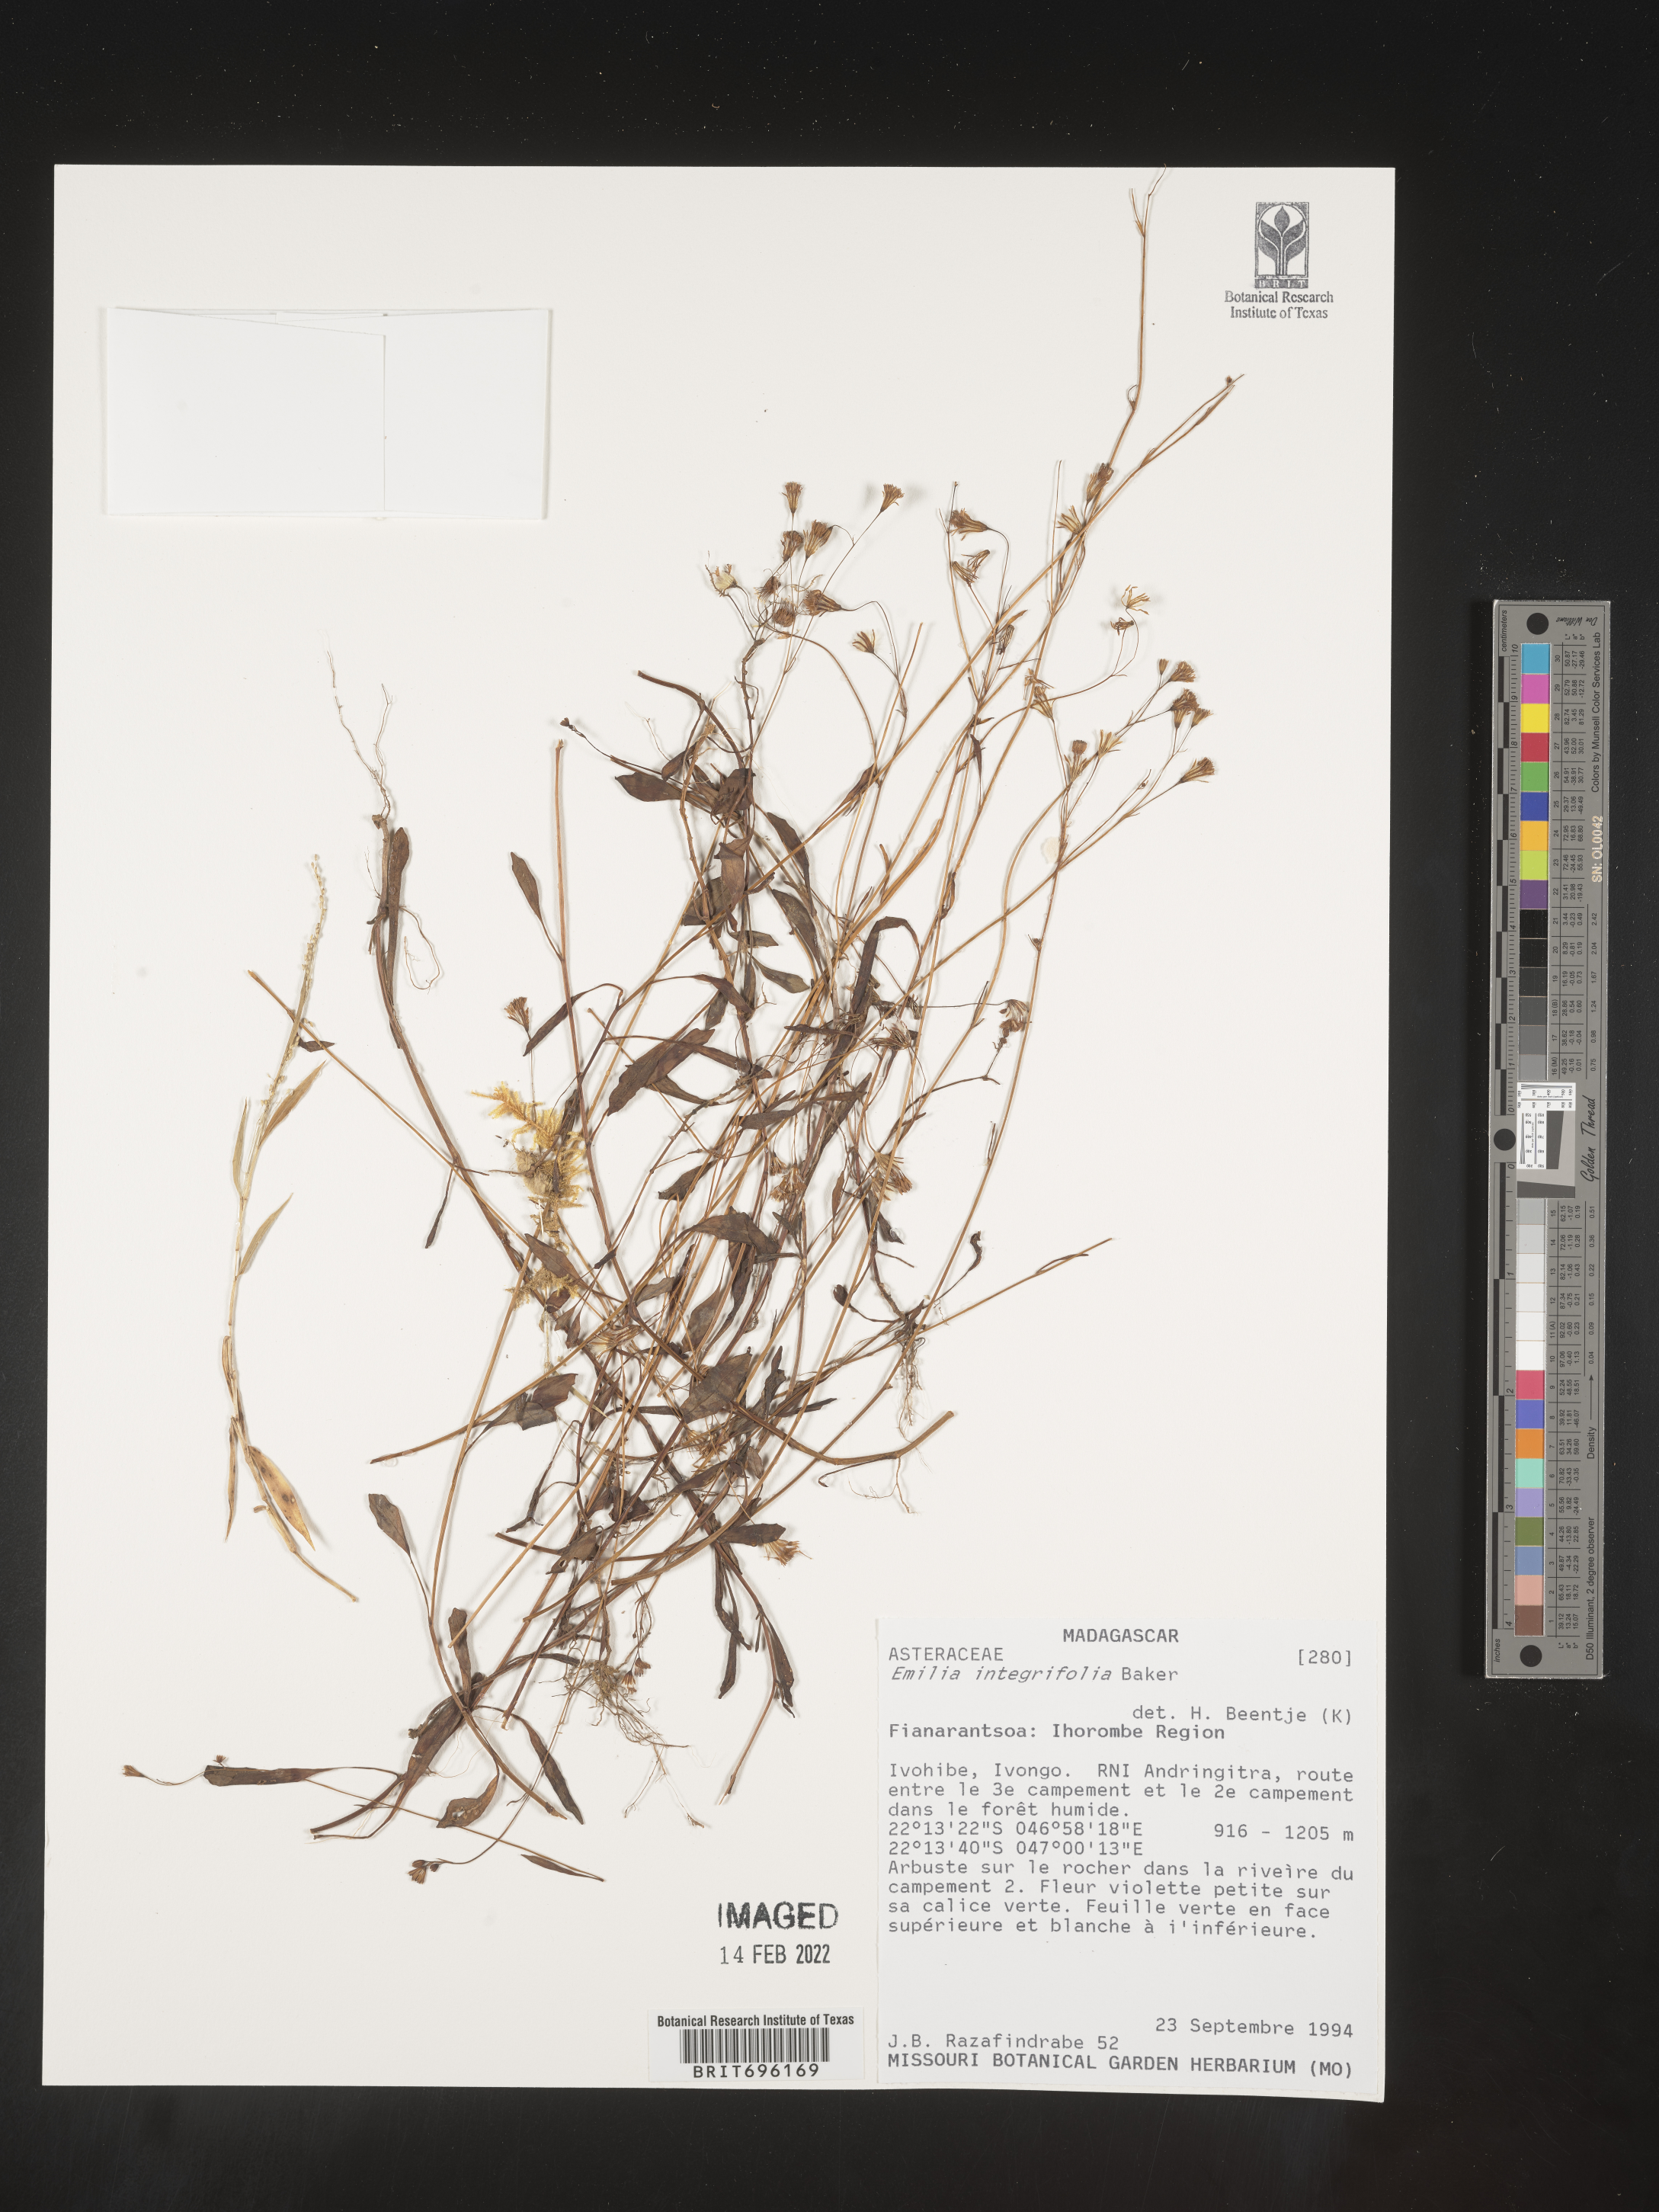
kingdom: Plantae
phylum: Tracheophyta
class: Magnoliopsida
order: Asterales
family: Asteraceae
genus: Emilia
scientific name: Emilia
